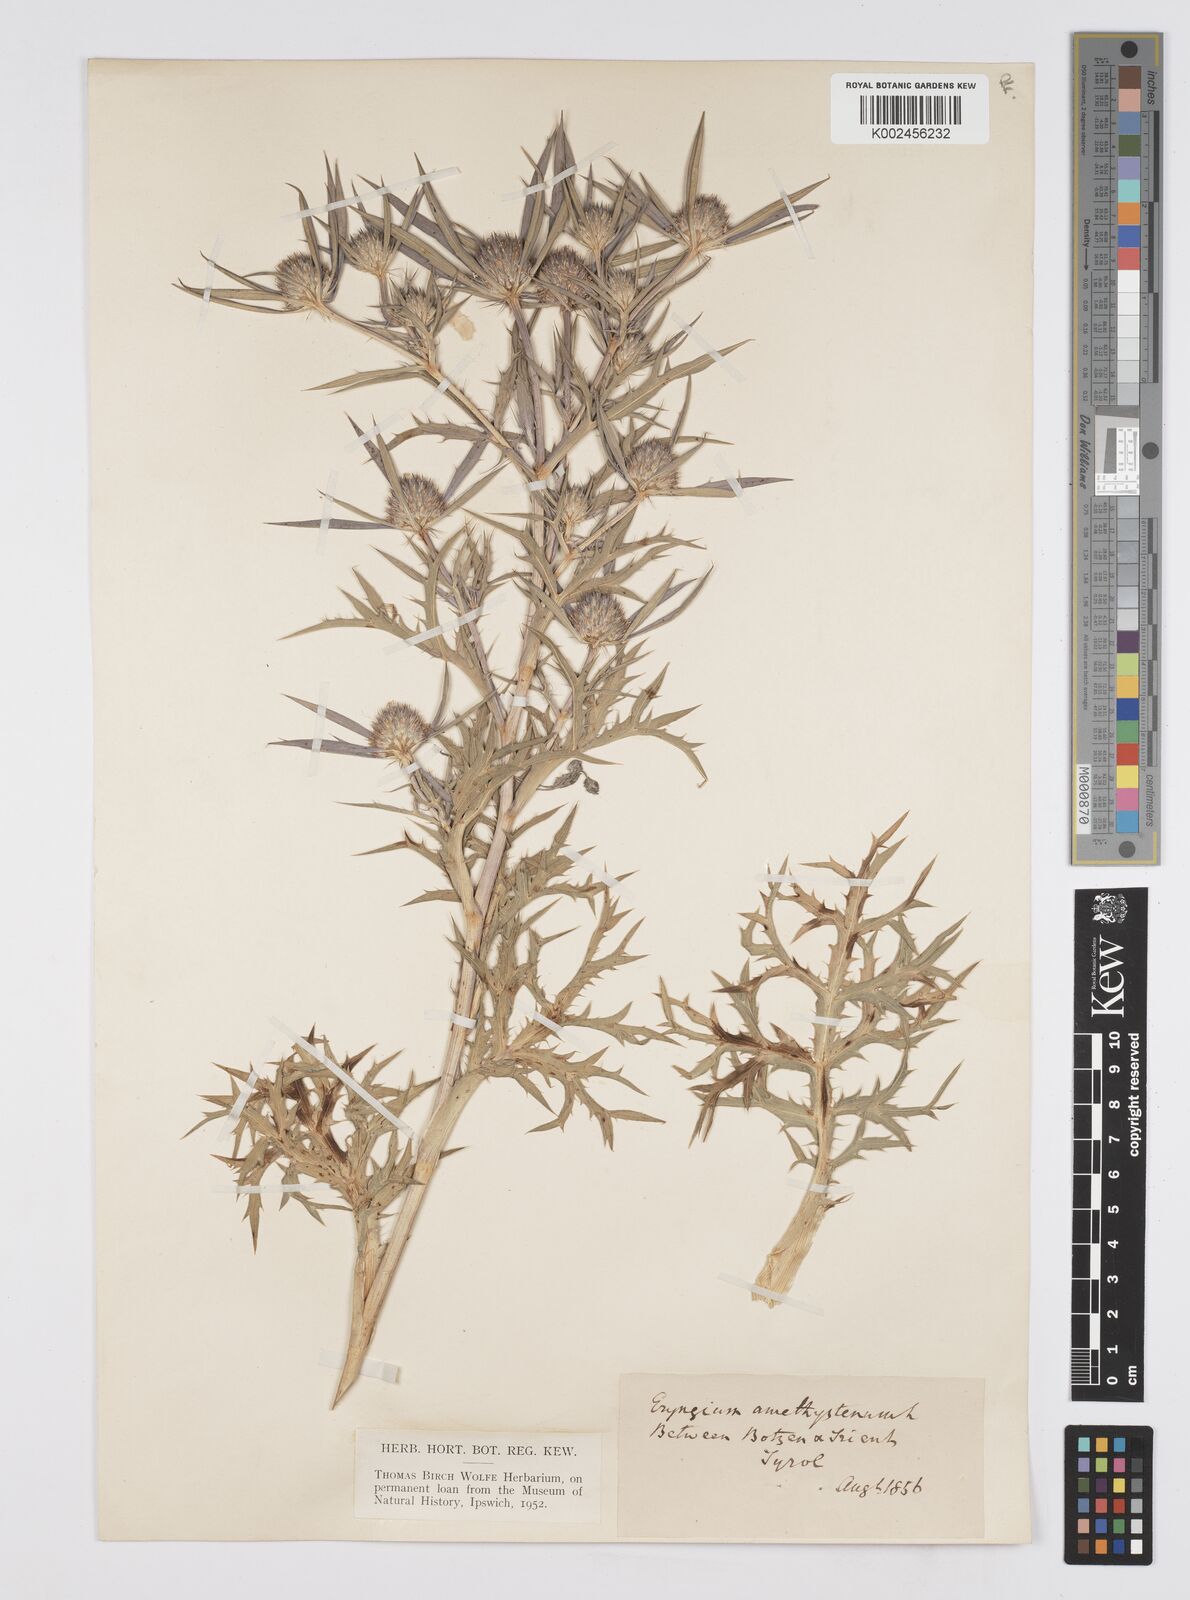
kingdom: Plantae
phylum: Tracheophyta
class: Magnoliopsida
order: Apiales
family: Apiaceae
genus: Eryngium
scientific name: Eryngium amethystinum
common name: Amethyst eryngo
